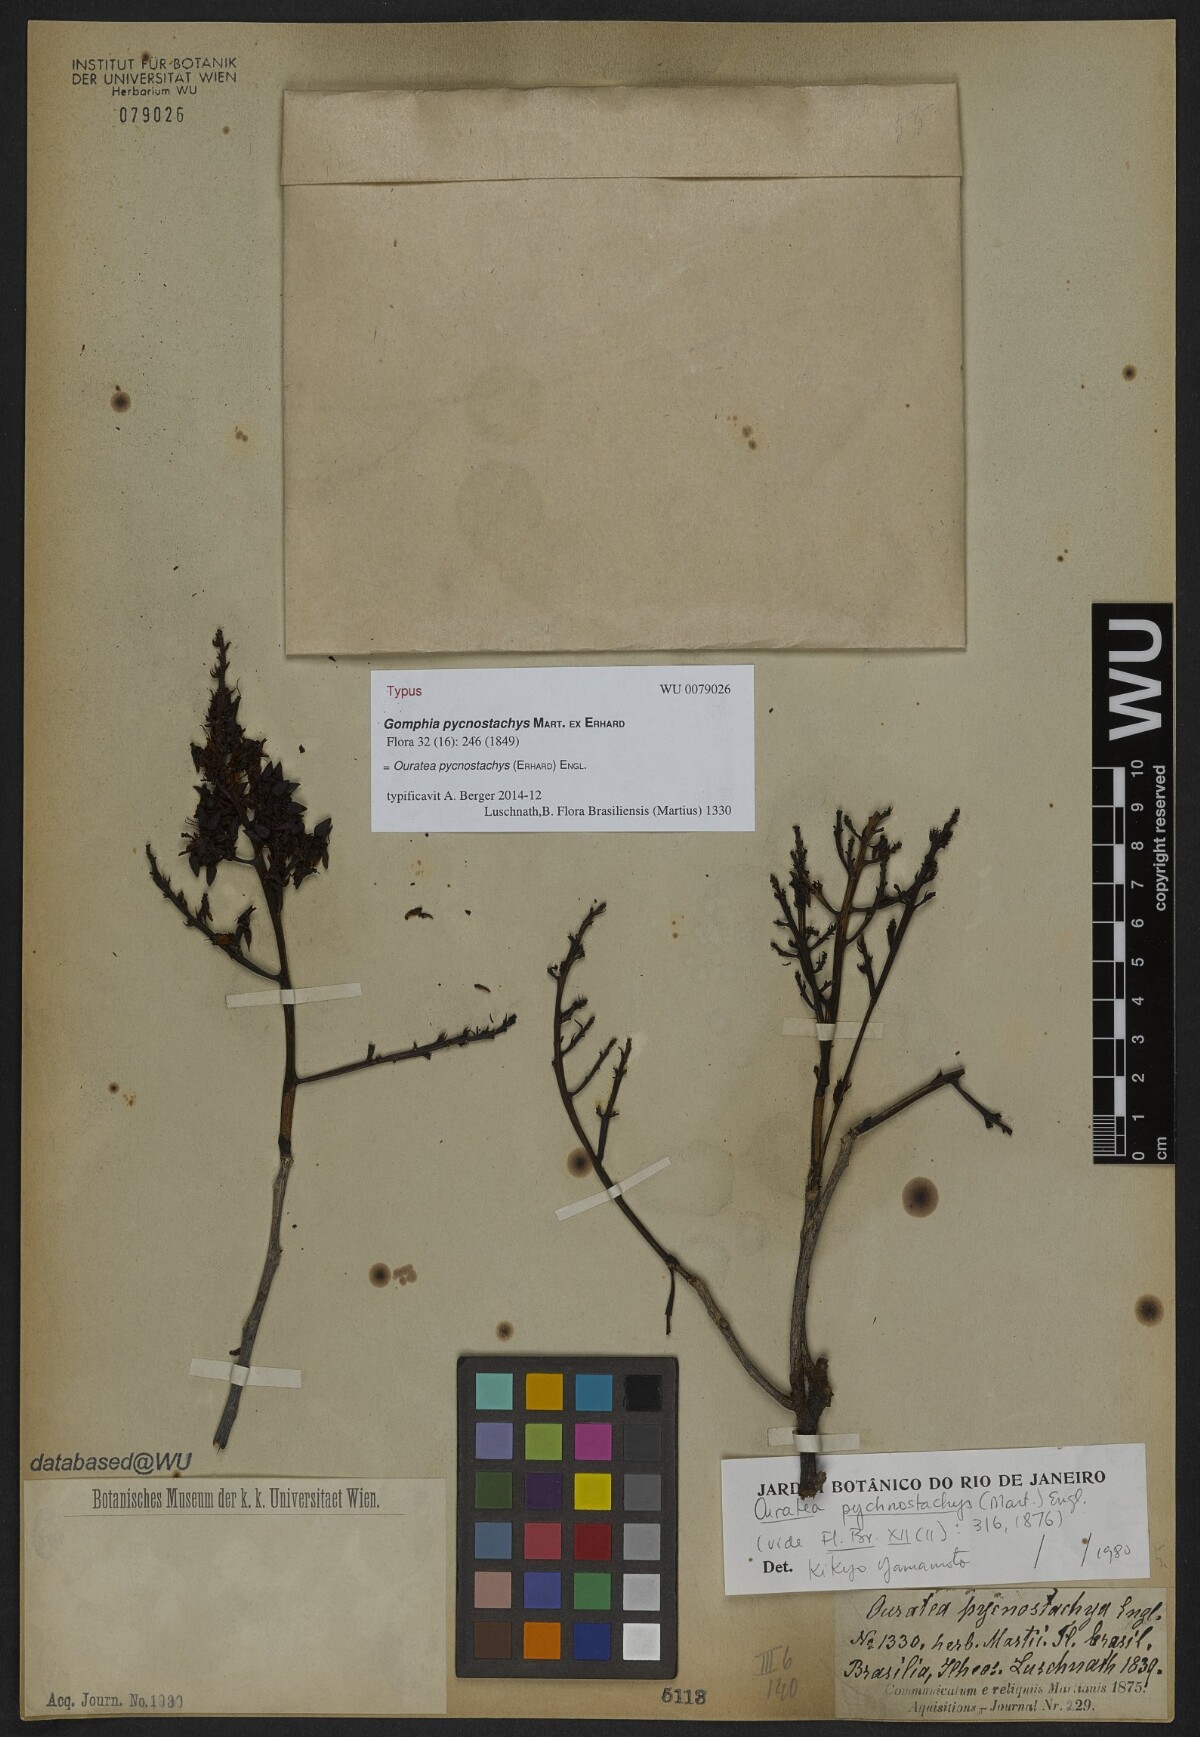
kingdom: Plantae
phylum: Tracheophyta
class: Magnoliopsida
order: Malpighiales
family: Ochnaceae
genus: Ouratea
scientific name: Ouratea pycnostachys
